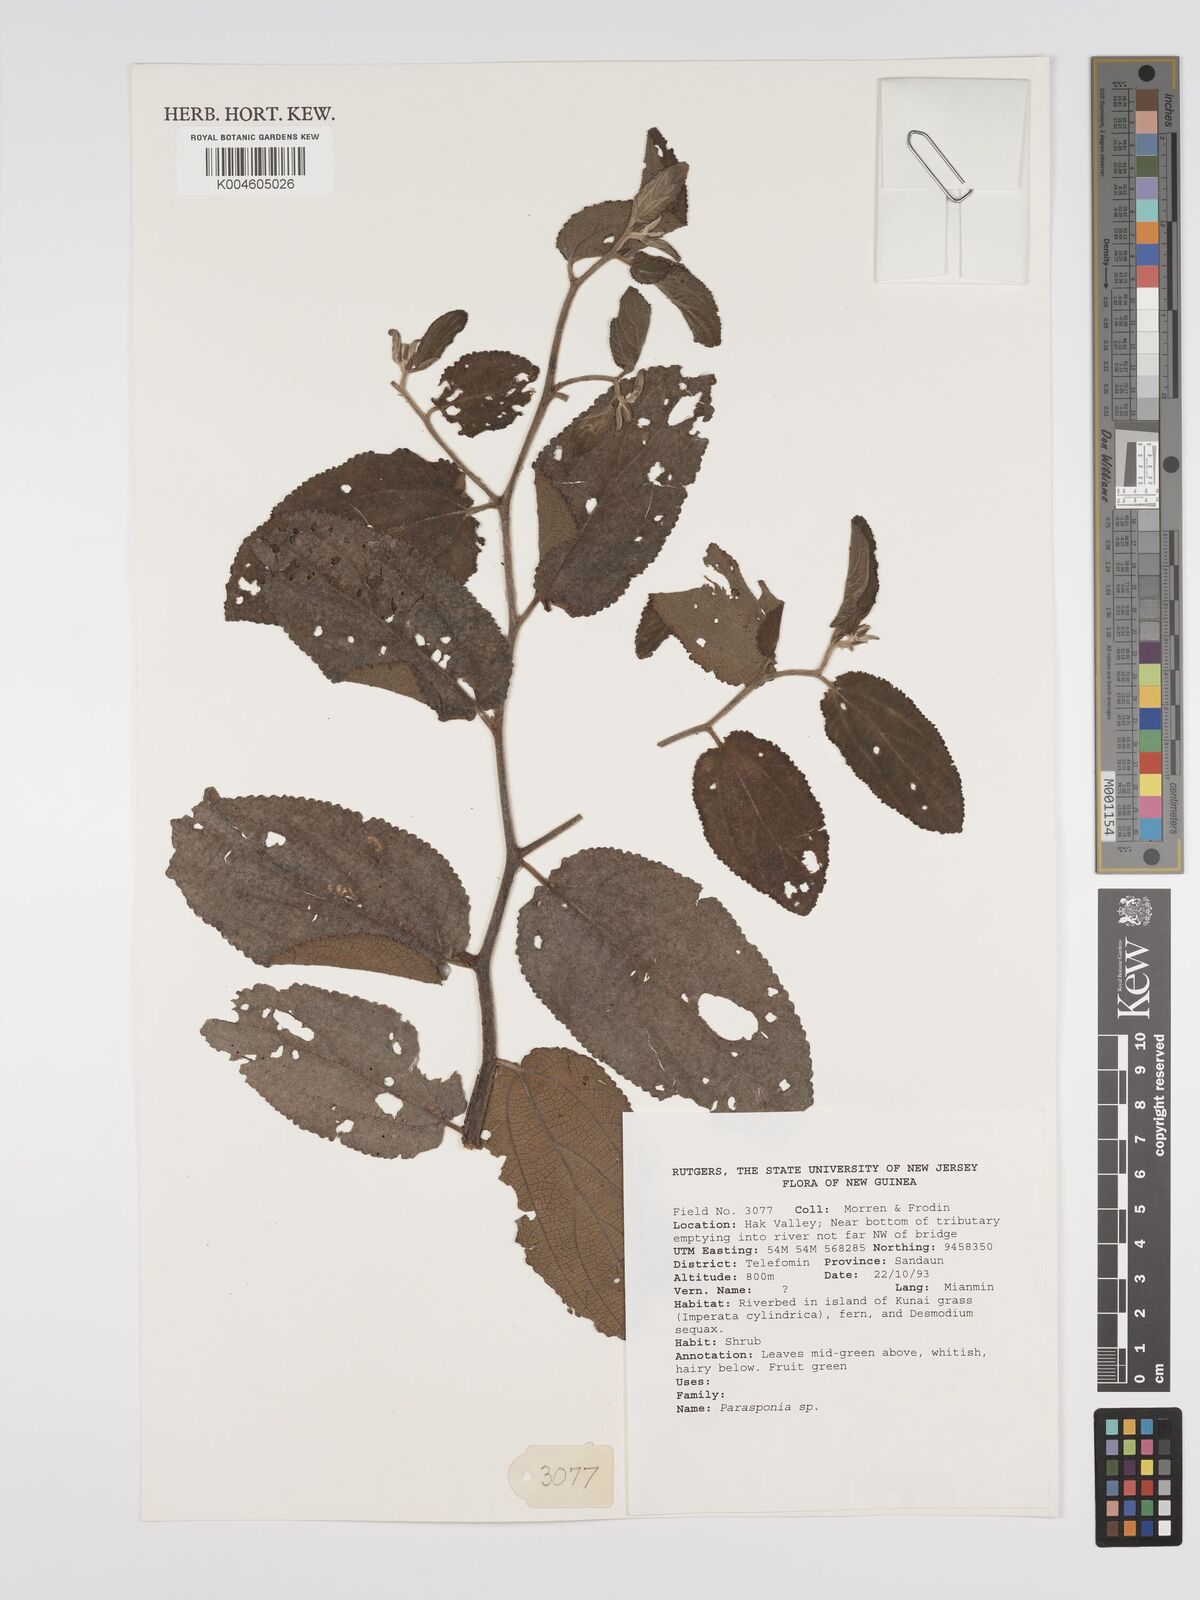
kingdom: Plantae
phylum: Tracheophyta
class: Magnoliopsida
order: Rosales
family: Cannabaceae
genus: Trema
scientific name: Trema
